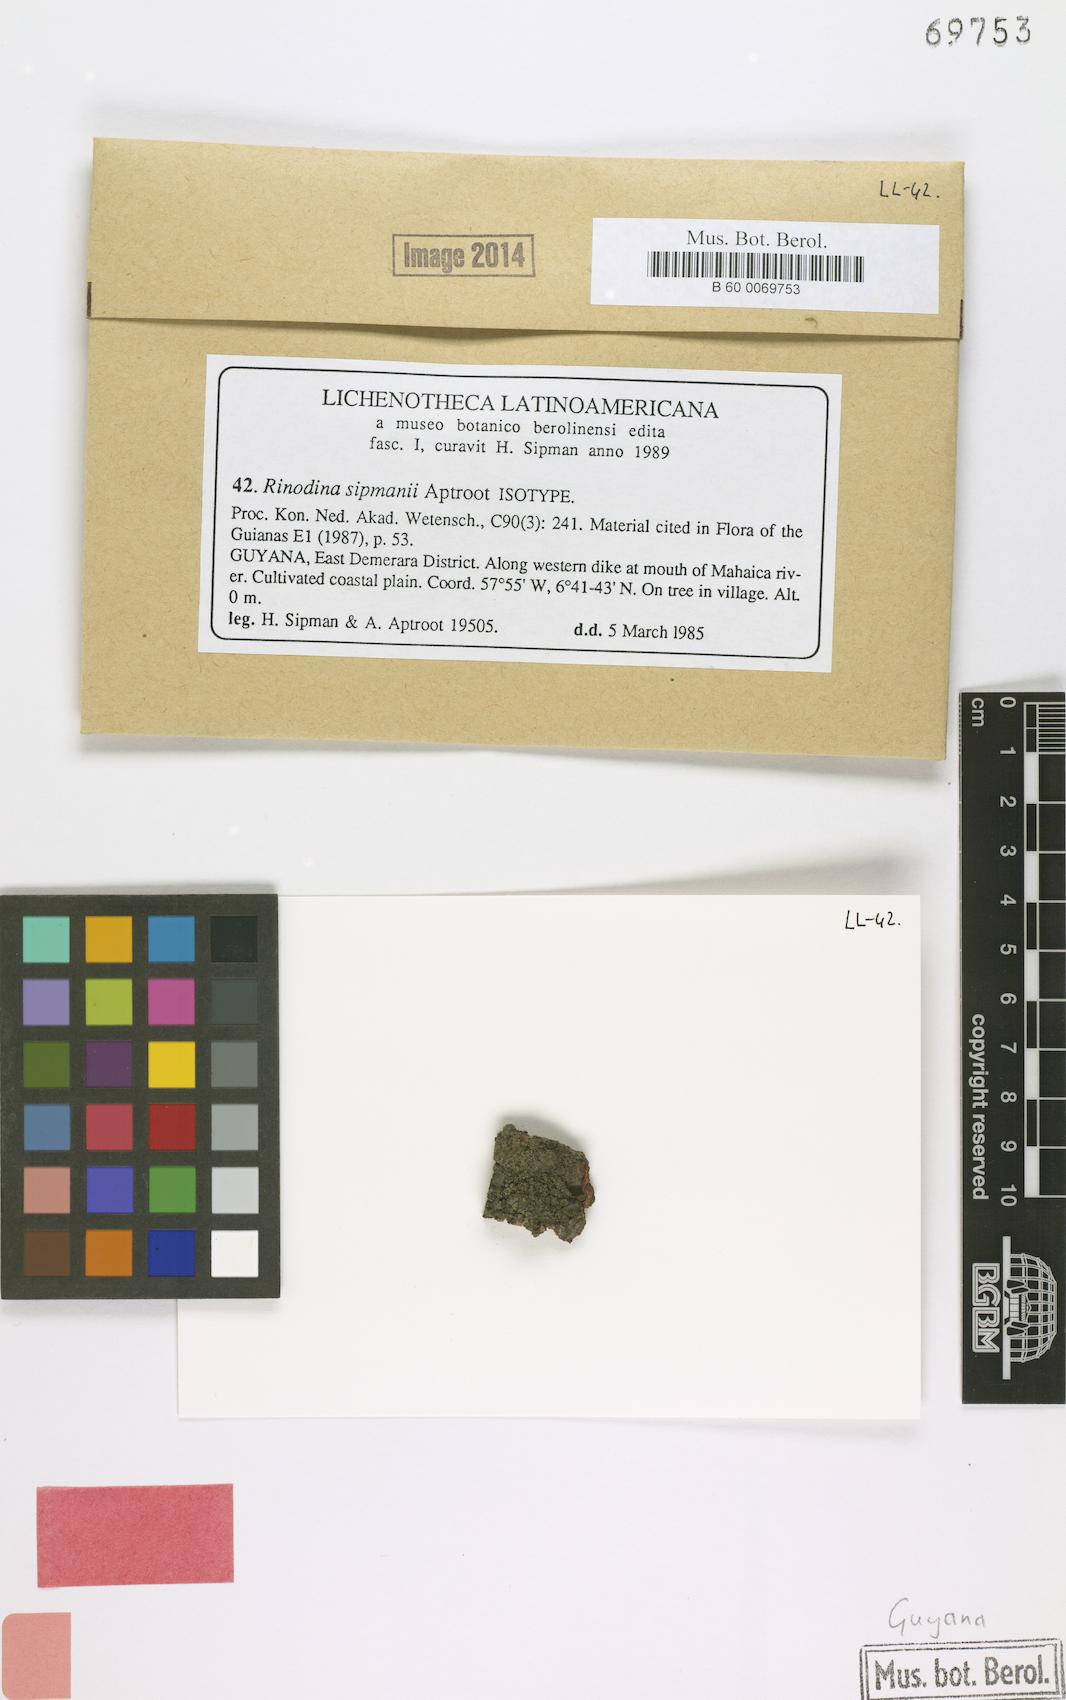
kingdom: Fungi
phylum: Ascomycota
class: Lecanoromycetes
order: Caliciales
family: Physciaceae
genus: Rinodina
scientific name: Rinodina sipmanii
